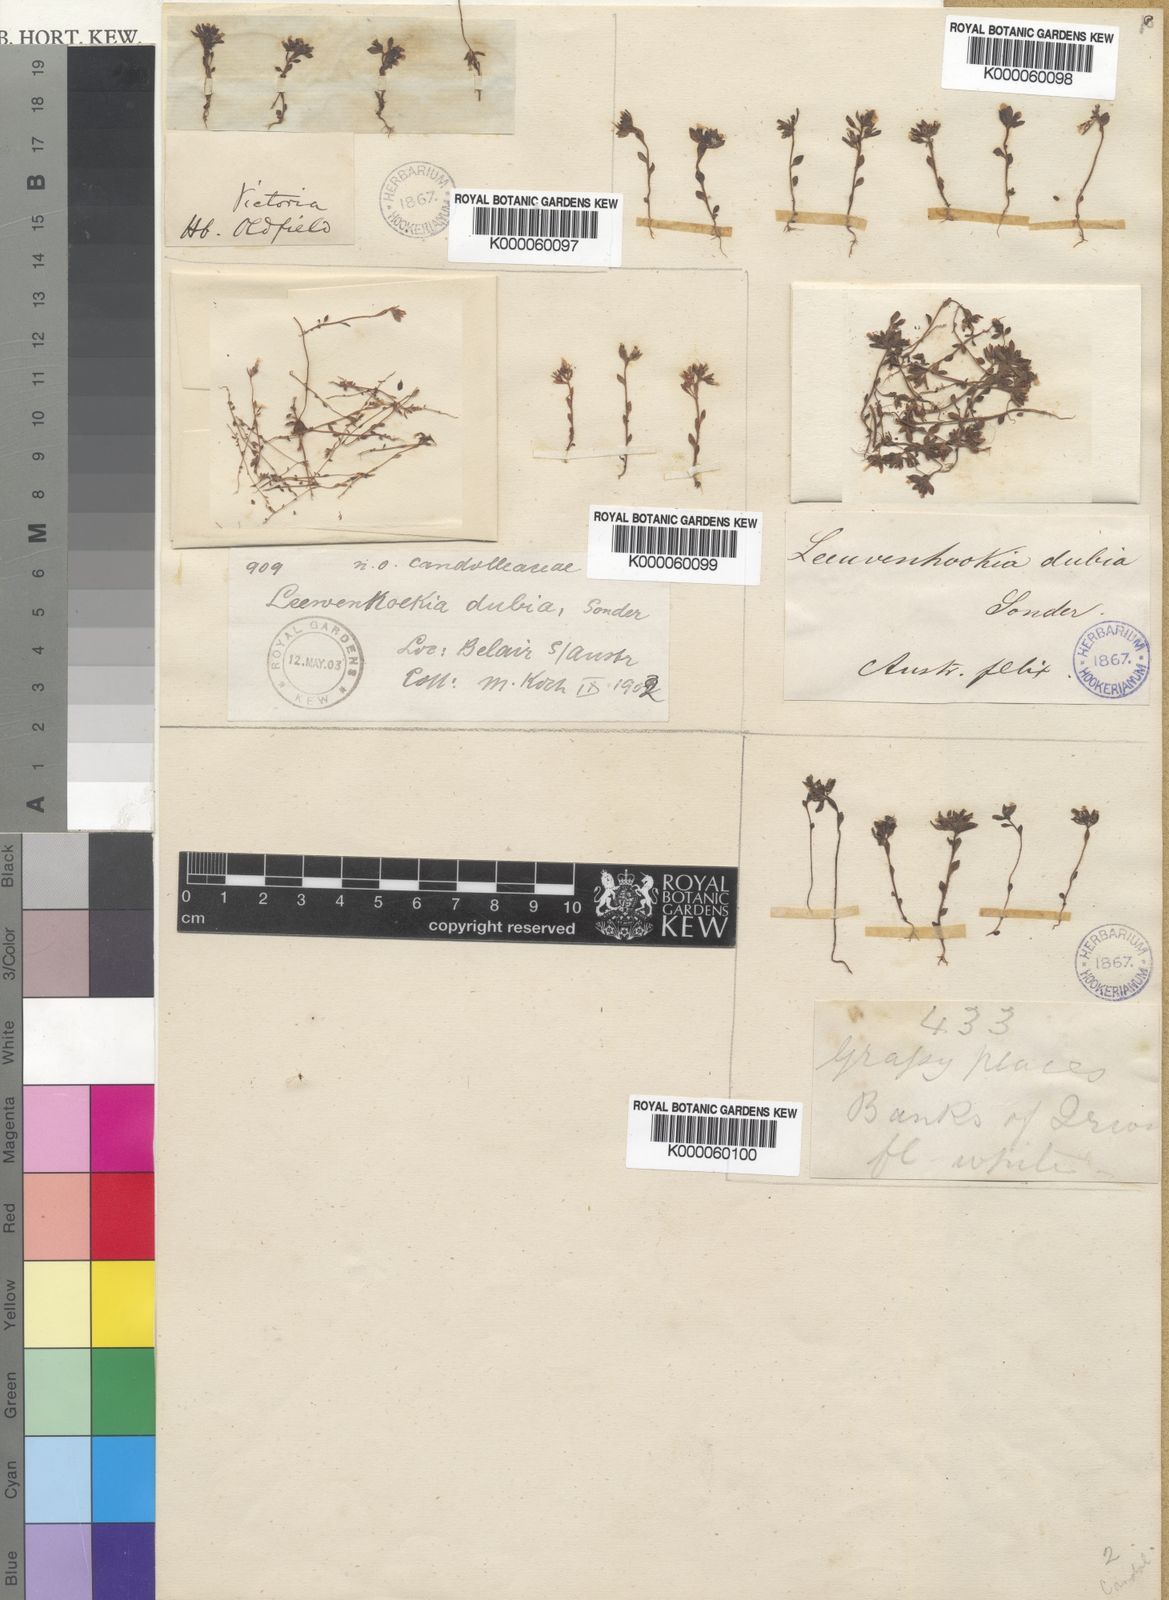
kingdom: Plantae
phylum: Tracheophyta
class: Magnoliopsida
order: Asterales
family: Stylidiaceae
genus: Levenhookia
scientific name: Levenhookia dubia
